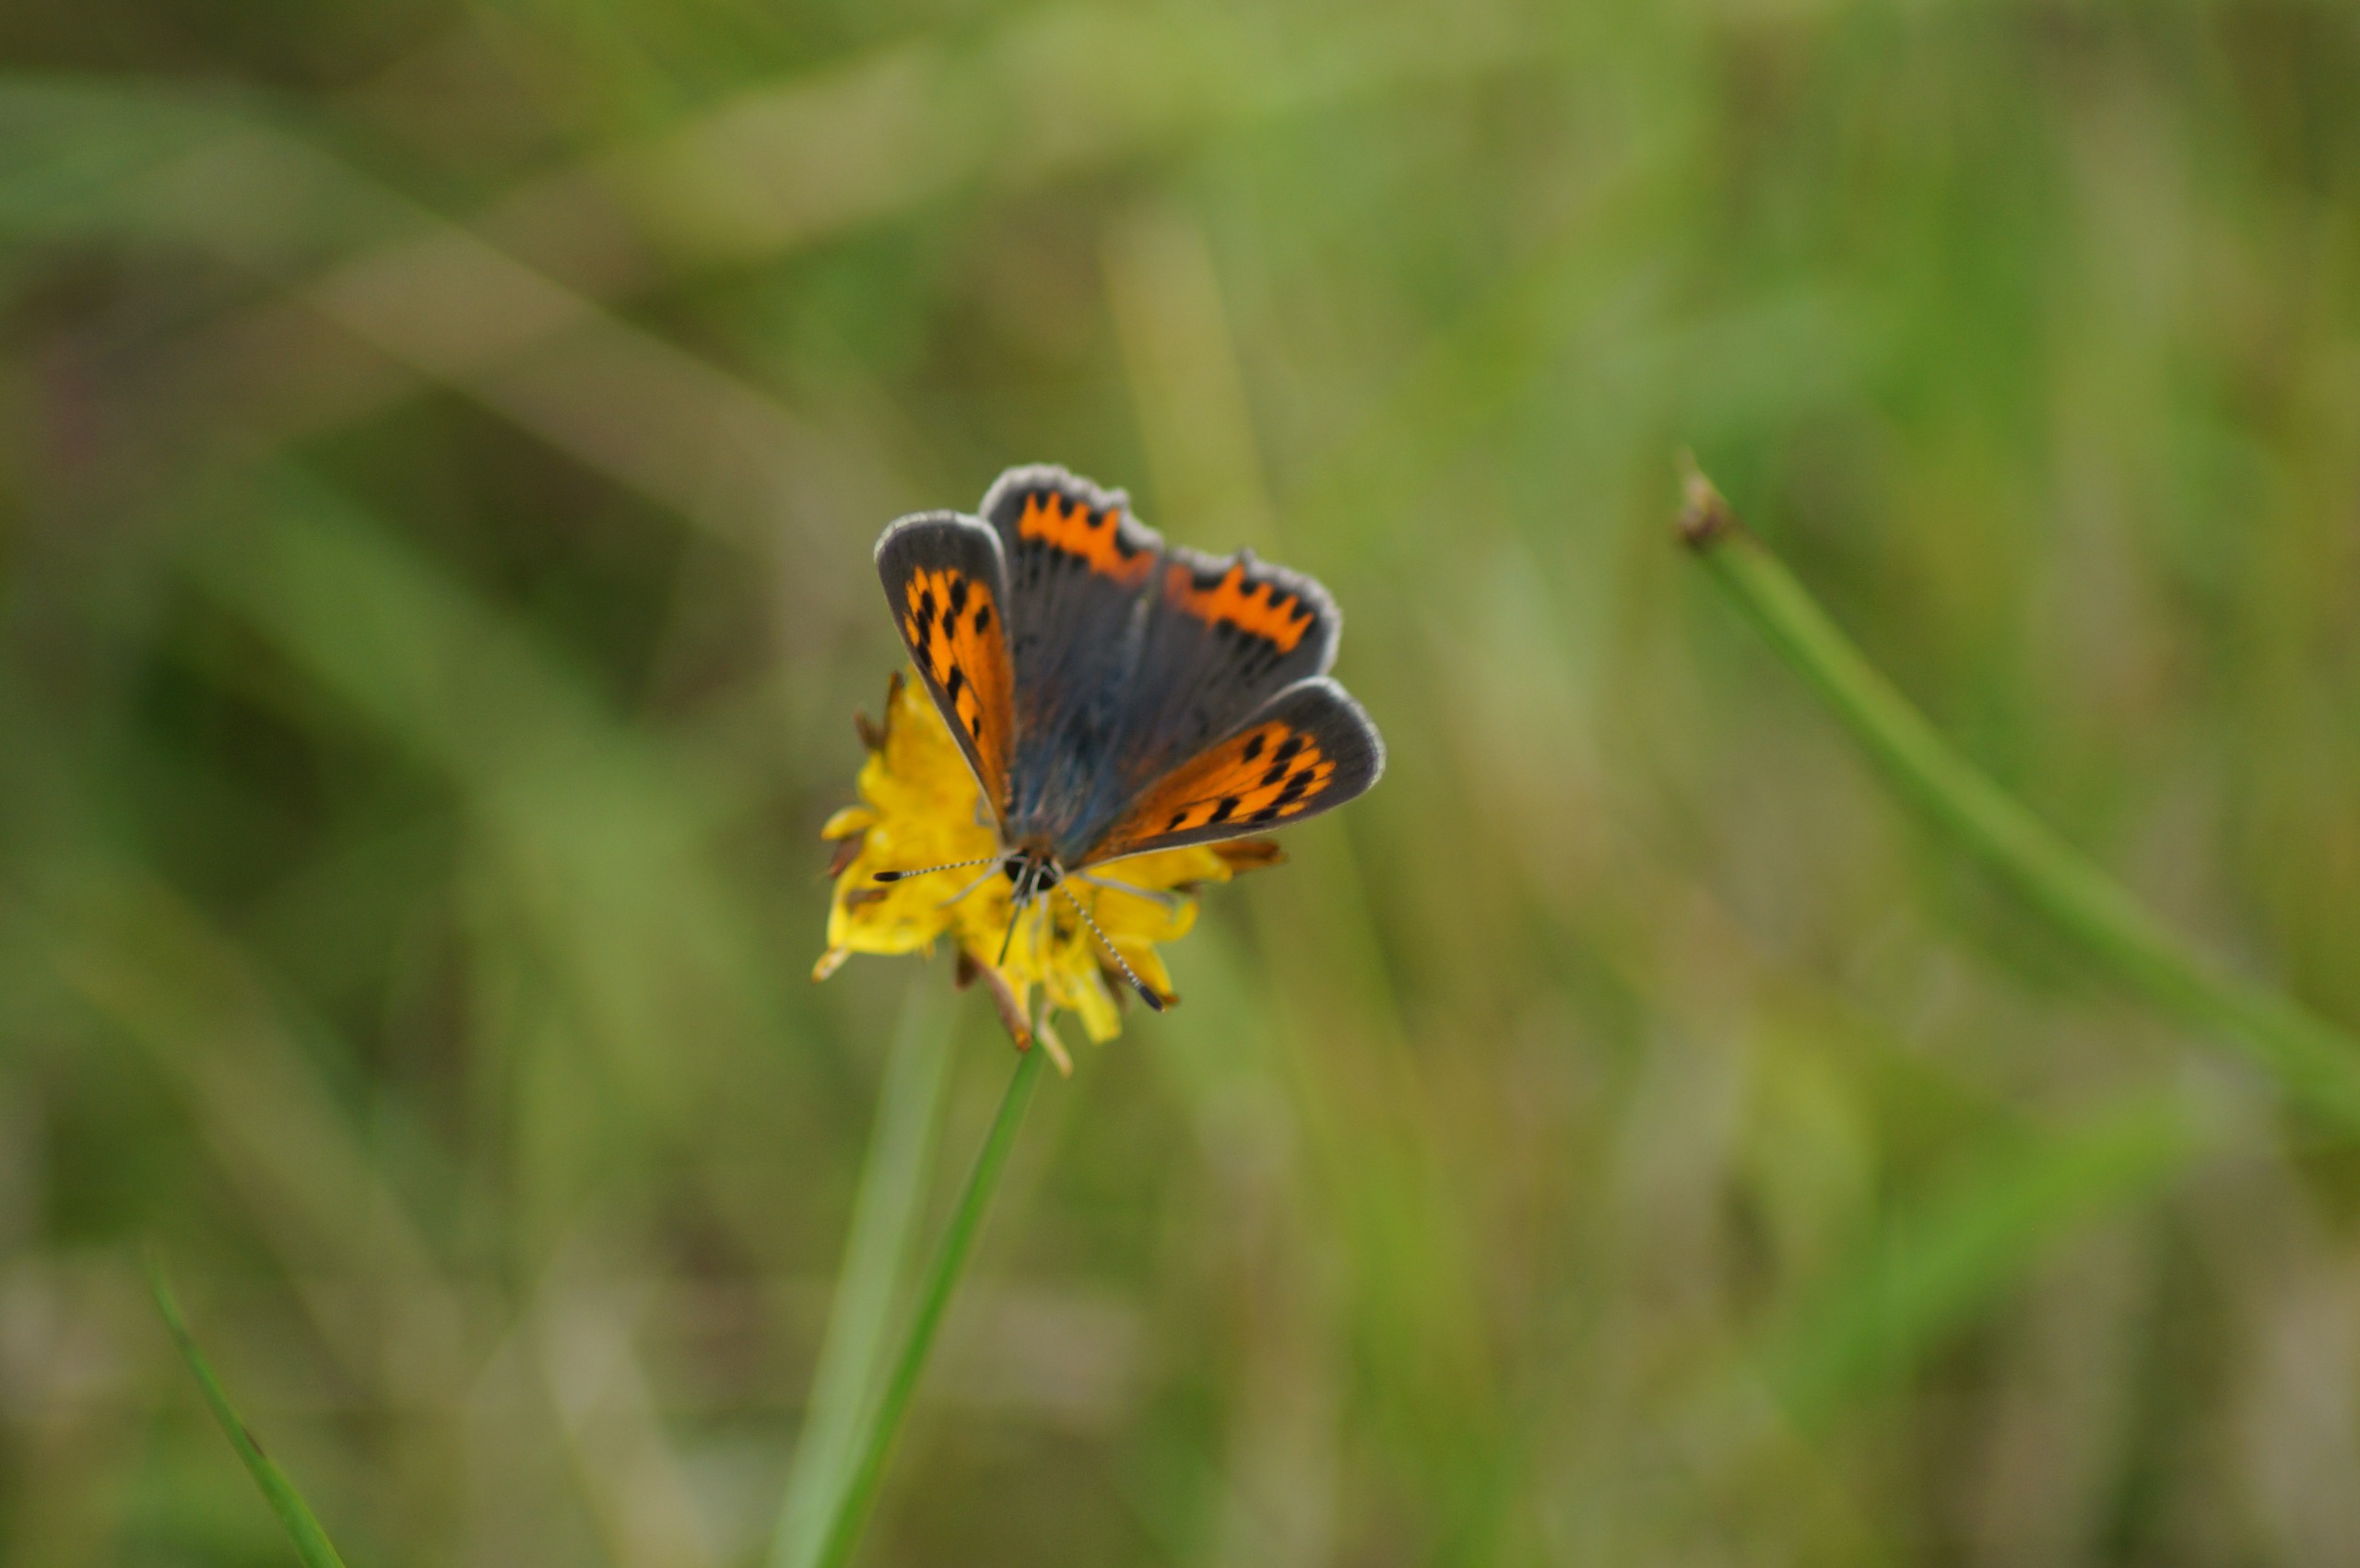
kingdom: Animalia
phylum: Arthropoda
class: Insecta
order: Lepidoptera
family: Lycaenidae
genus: Lycaena
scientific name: Lycaena phlaeas
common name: Lille ildfugl
